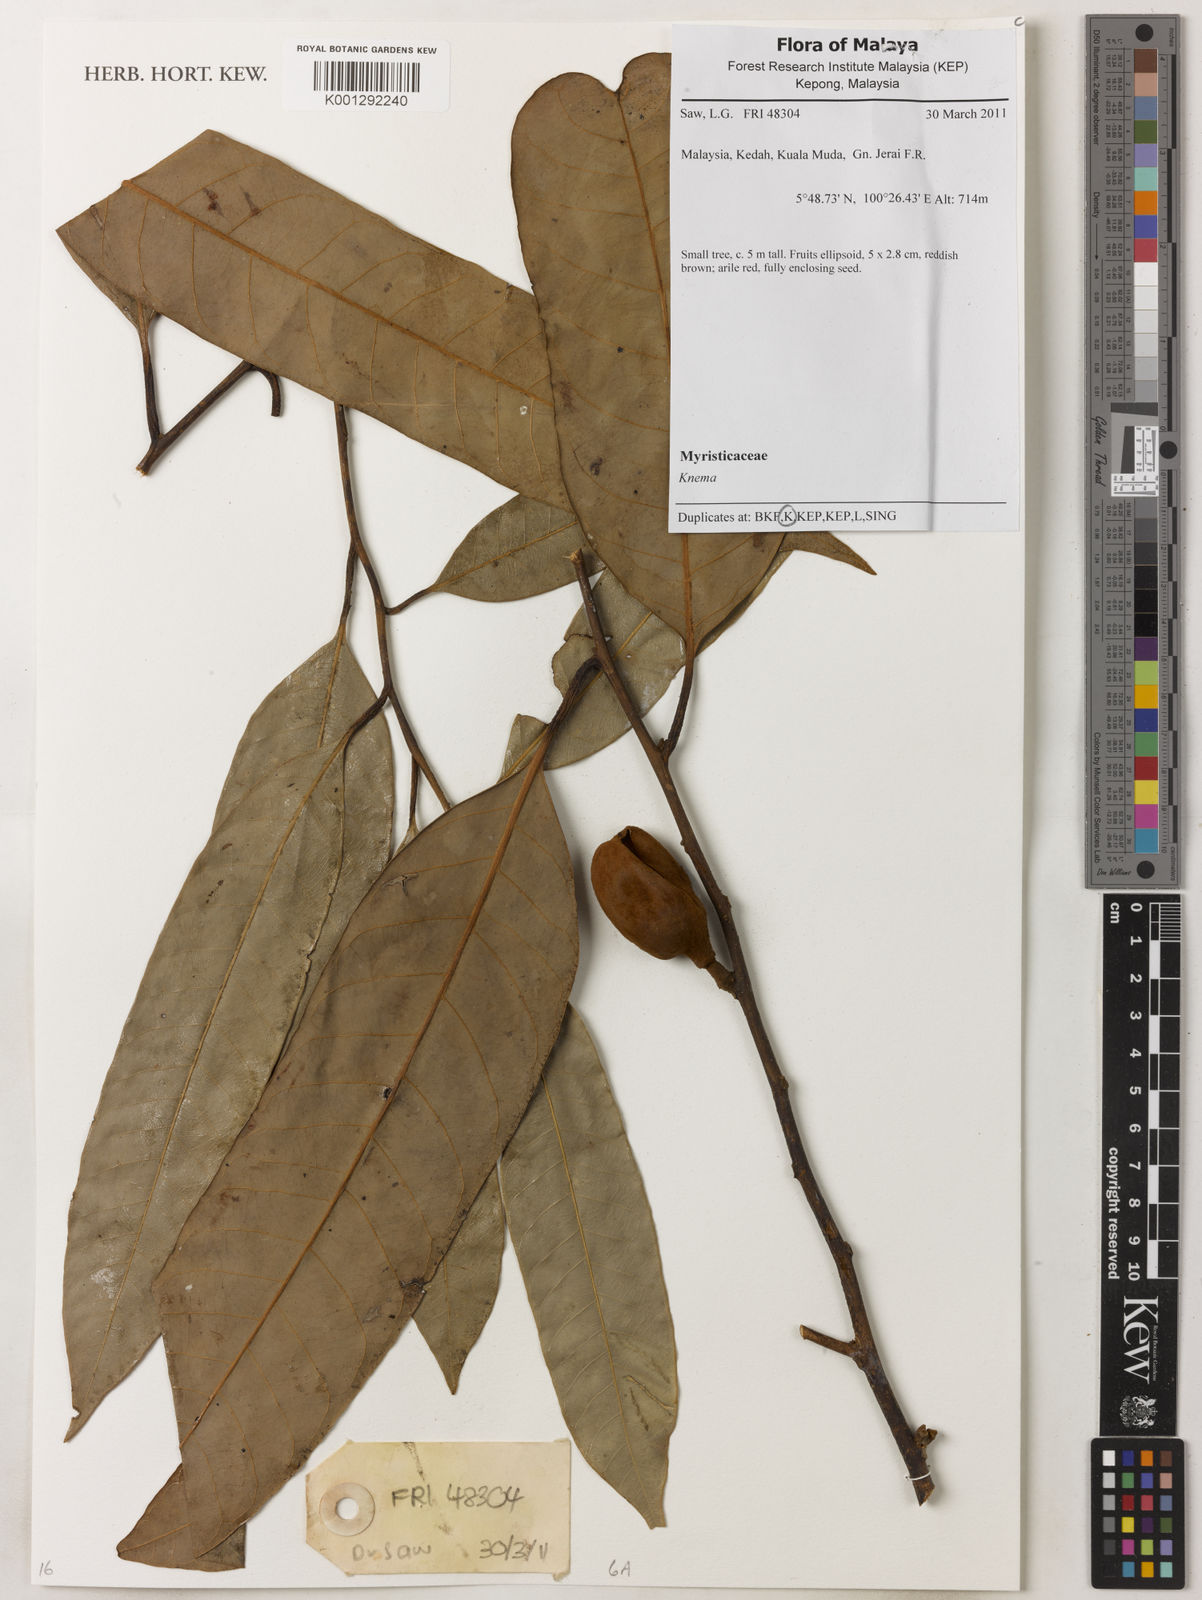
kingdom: Plantae
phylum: Tracheophyta
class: Magnoliopsida
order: Magnoliales
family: Myristicaceae
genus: Knema
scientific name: Knema
